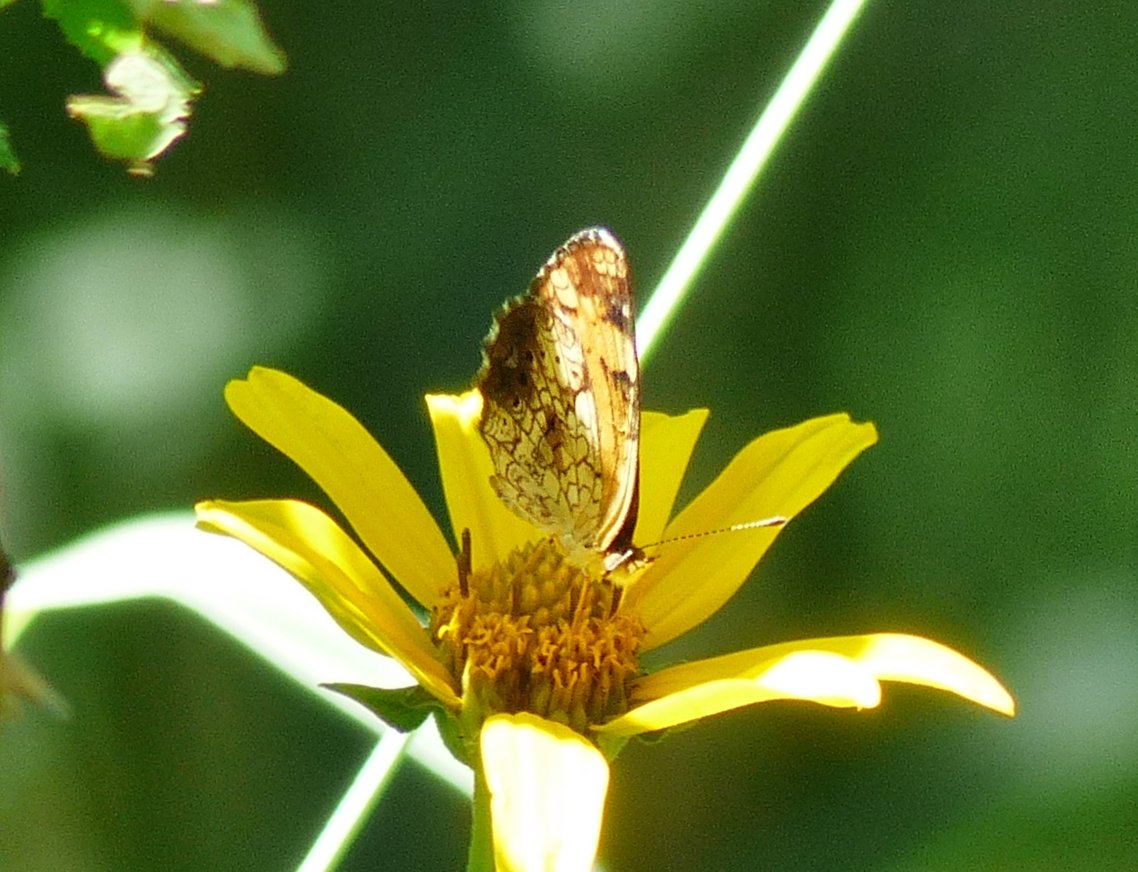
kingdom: Animalia
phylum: Arthropoda
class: Insecta
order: Lepidoptera
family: Nymphalidae
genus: Phyciodes
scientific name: Phyciodes
